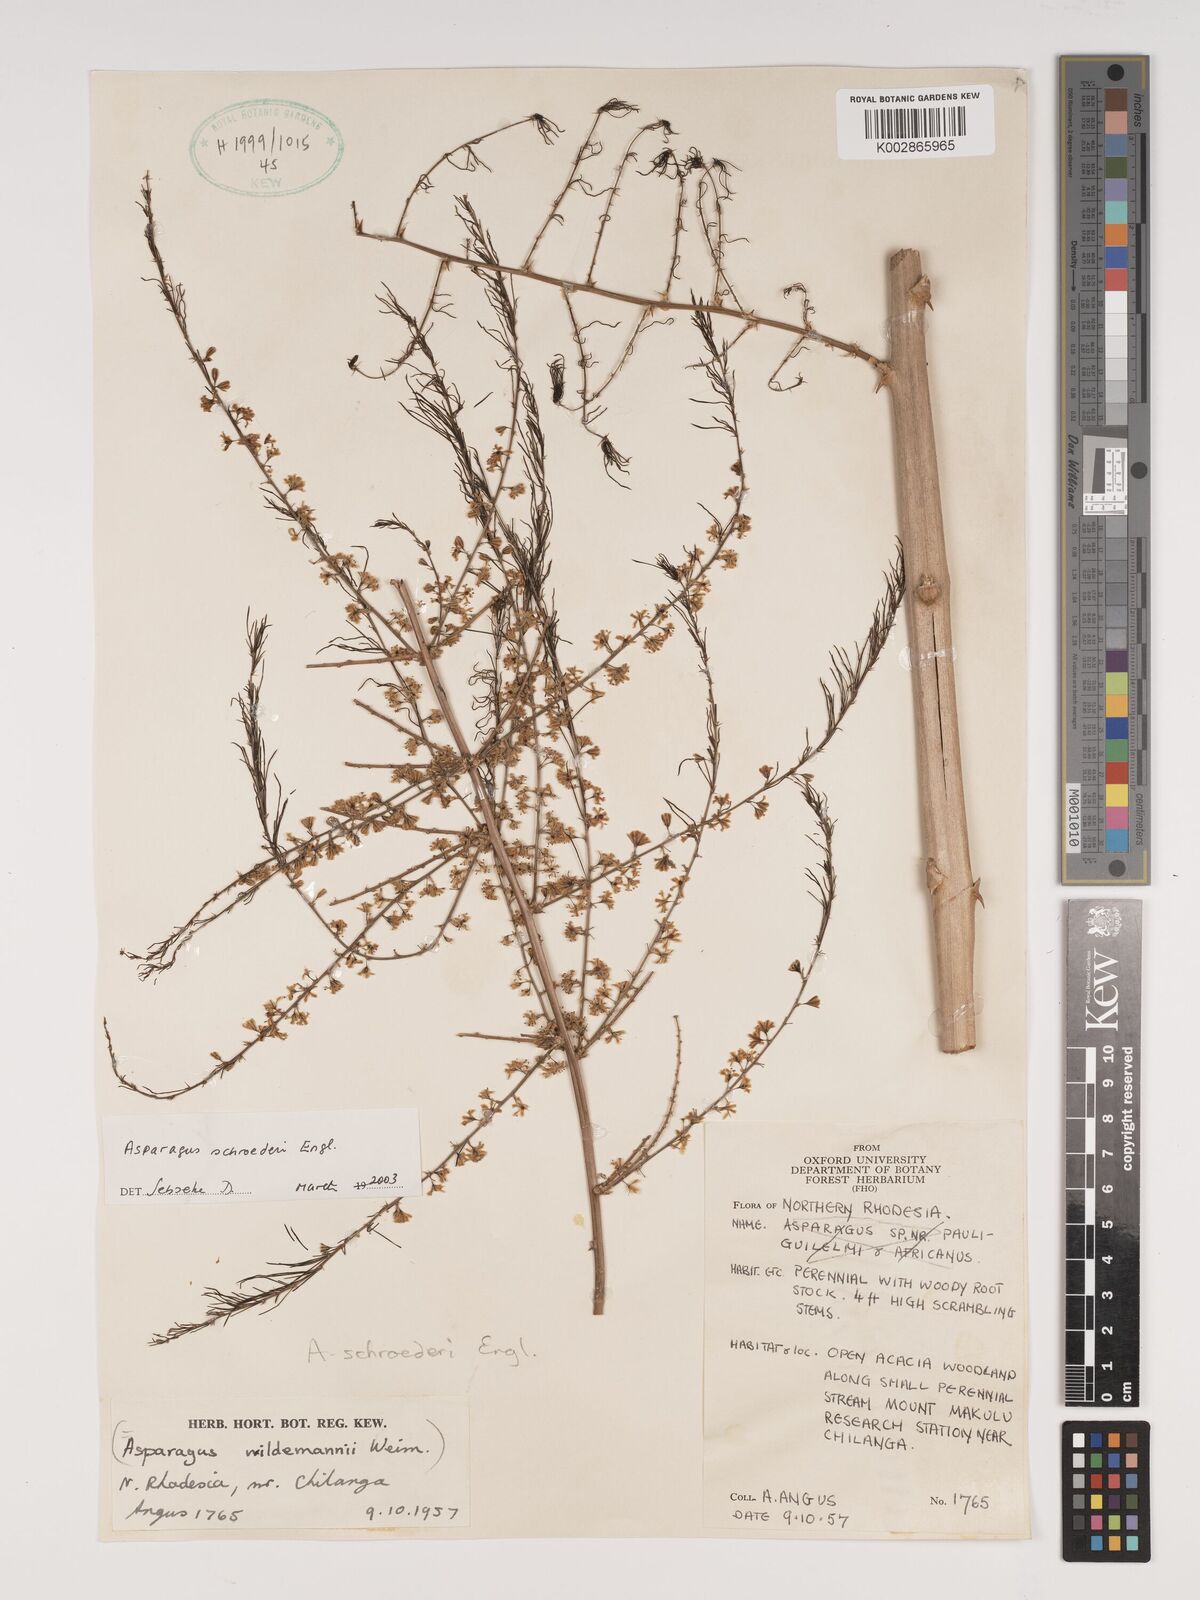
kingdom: Plantae
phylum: Tracheophyta
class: Liliopsida
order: Asparagales
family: Asparagaceae
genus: Asparagus
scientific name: Asparagus schroederi
